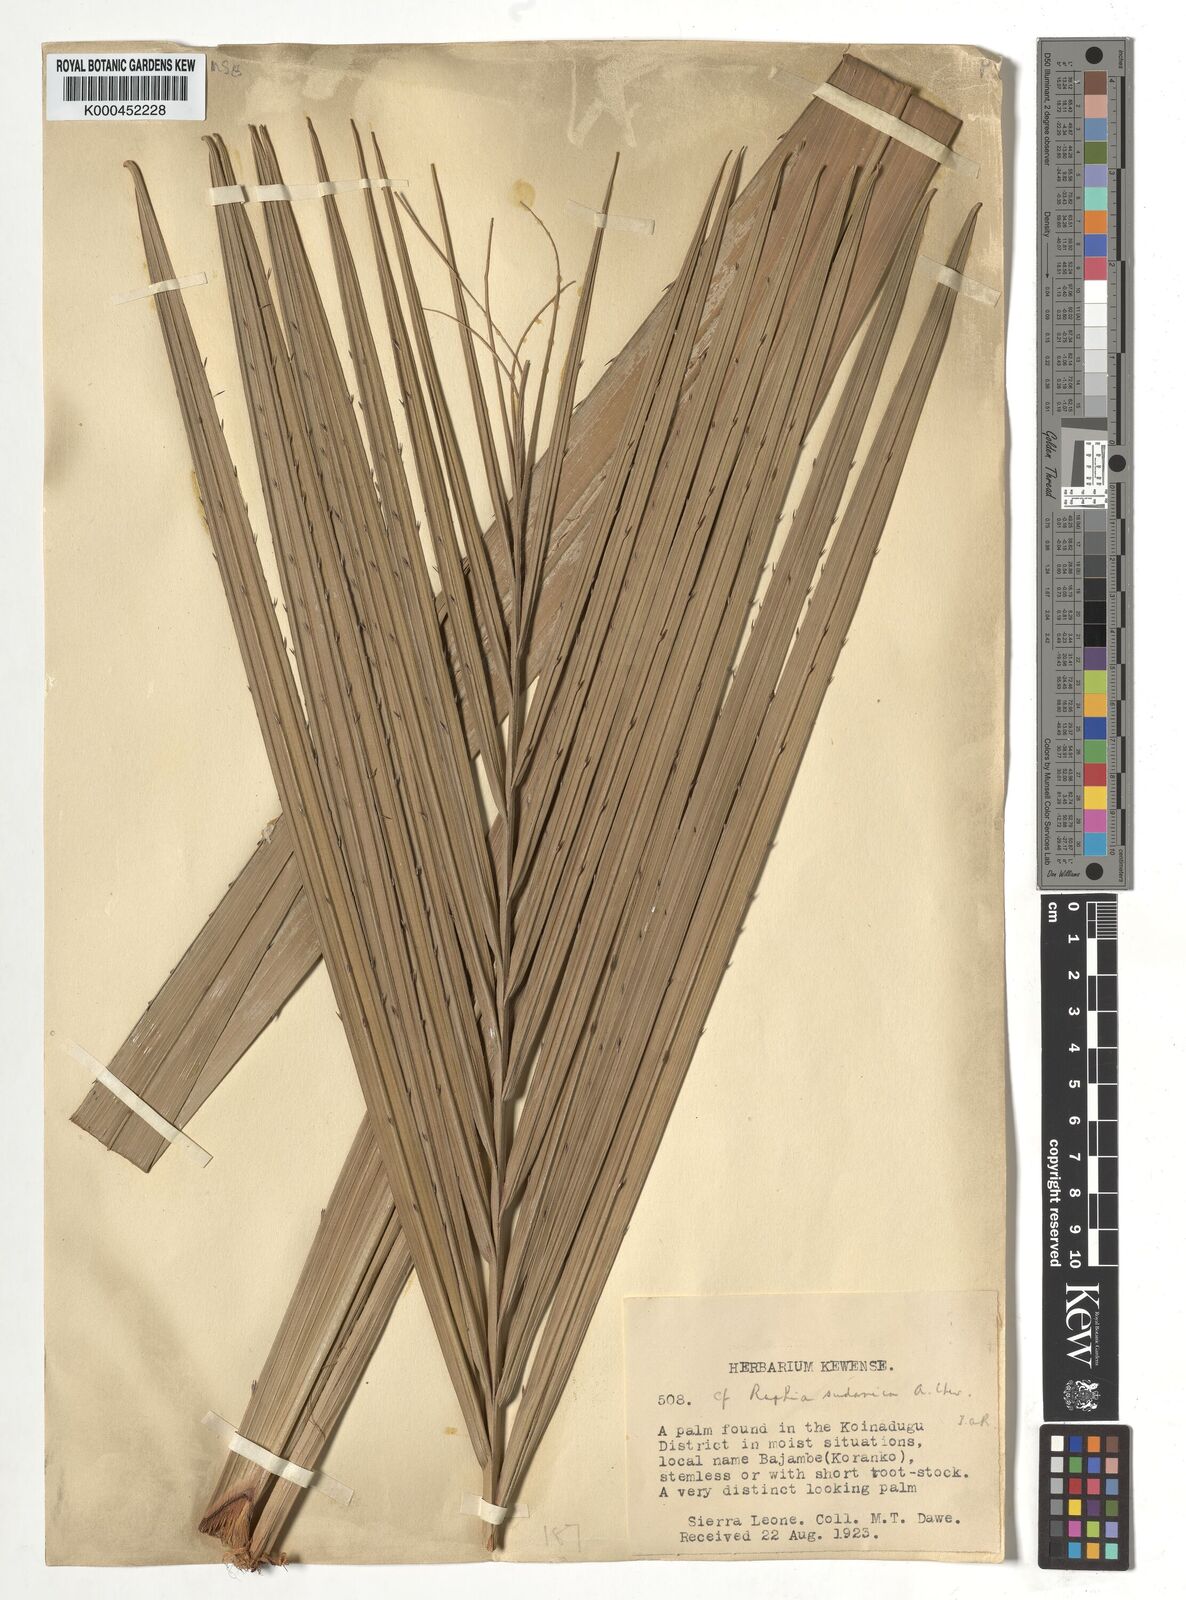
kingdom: Plantae
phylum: Tracheophyta
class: Liliopsida
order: Arecales
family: Arecaceae
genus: Raphia
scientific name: Raphia sudanica
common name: Northern raphia
